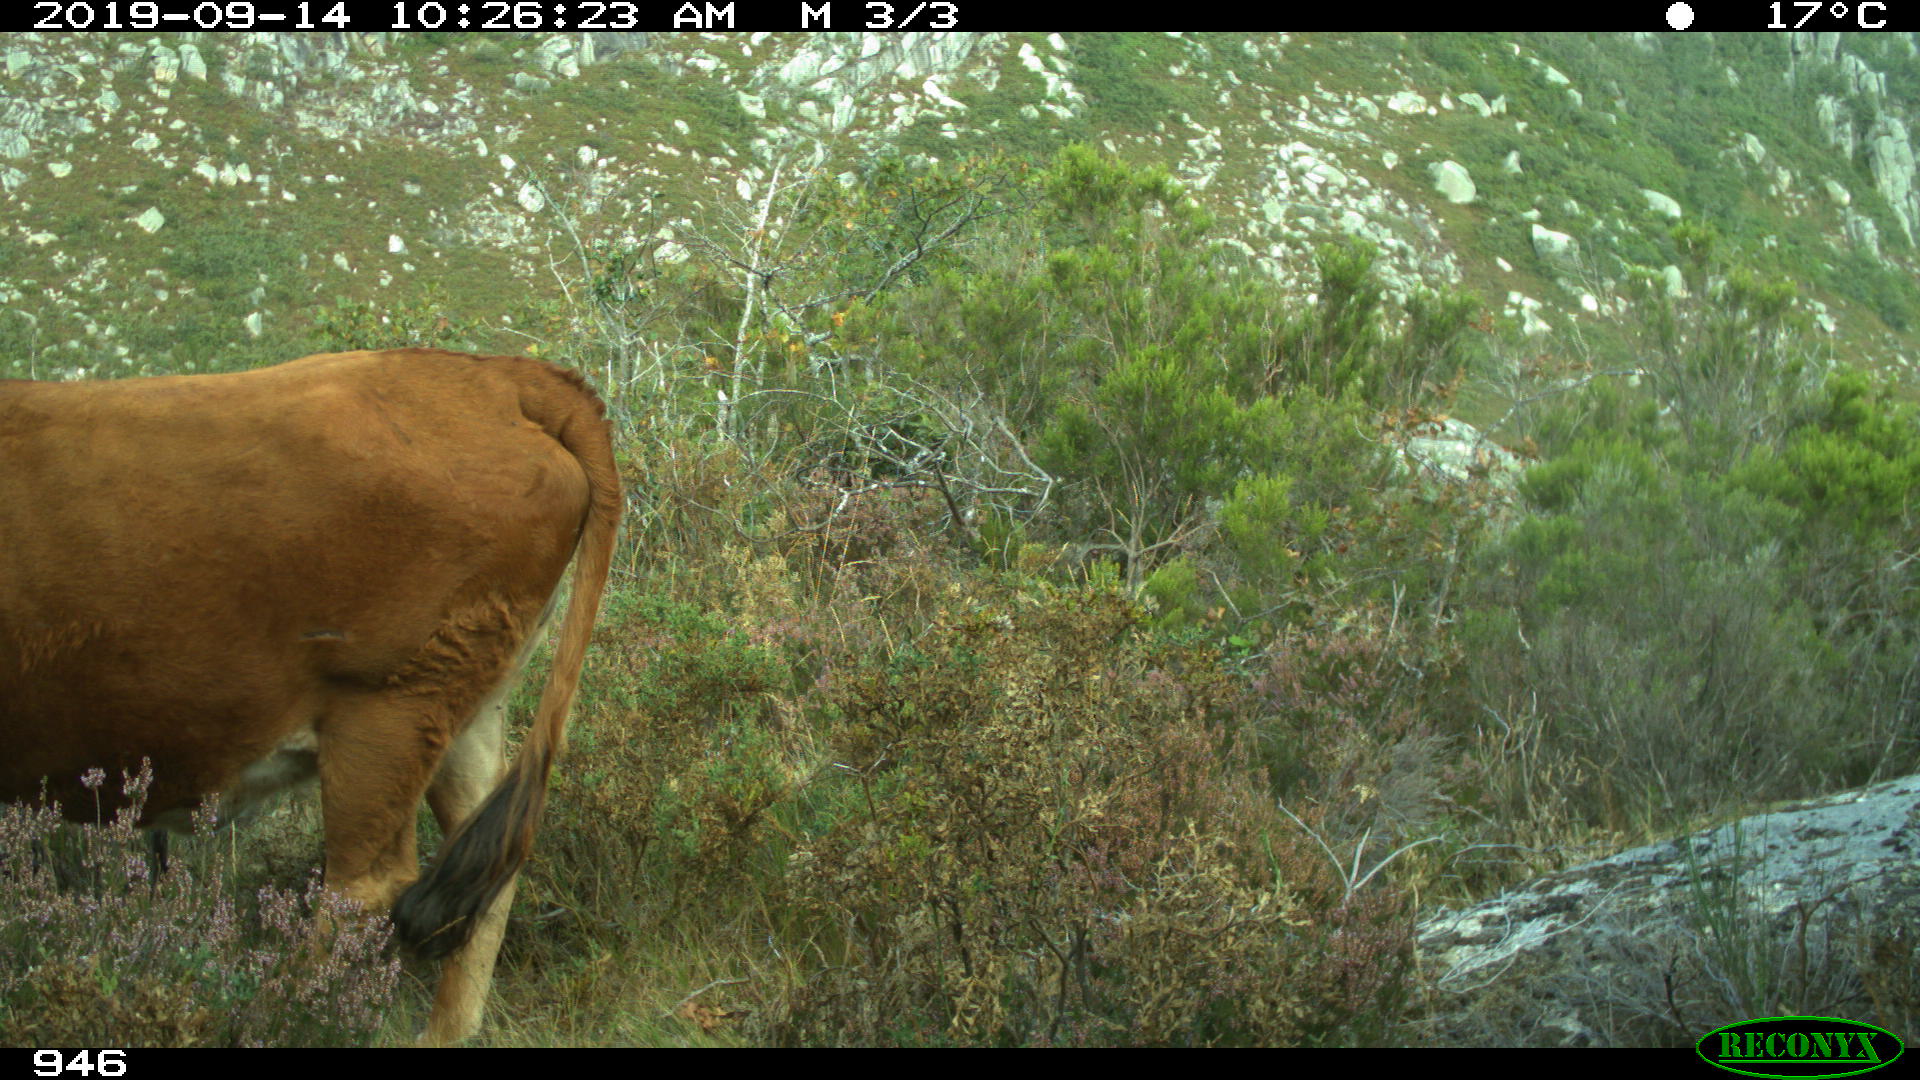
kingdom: Animalia
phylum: Chordata
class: Mammalia
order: Artiodactyla
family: Bovidae
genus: Bos
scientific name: Bos taurus
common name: Domesticated cattle
